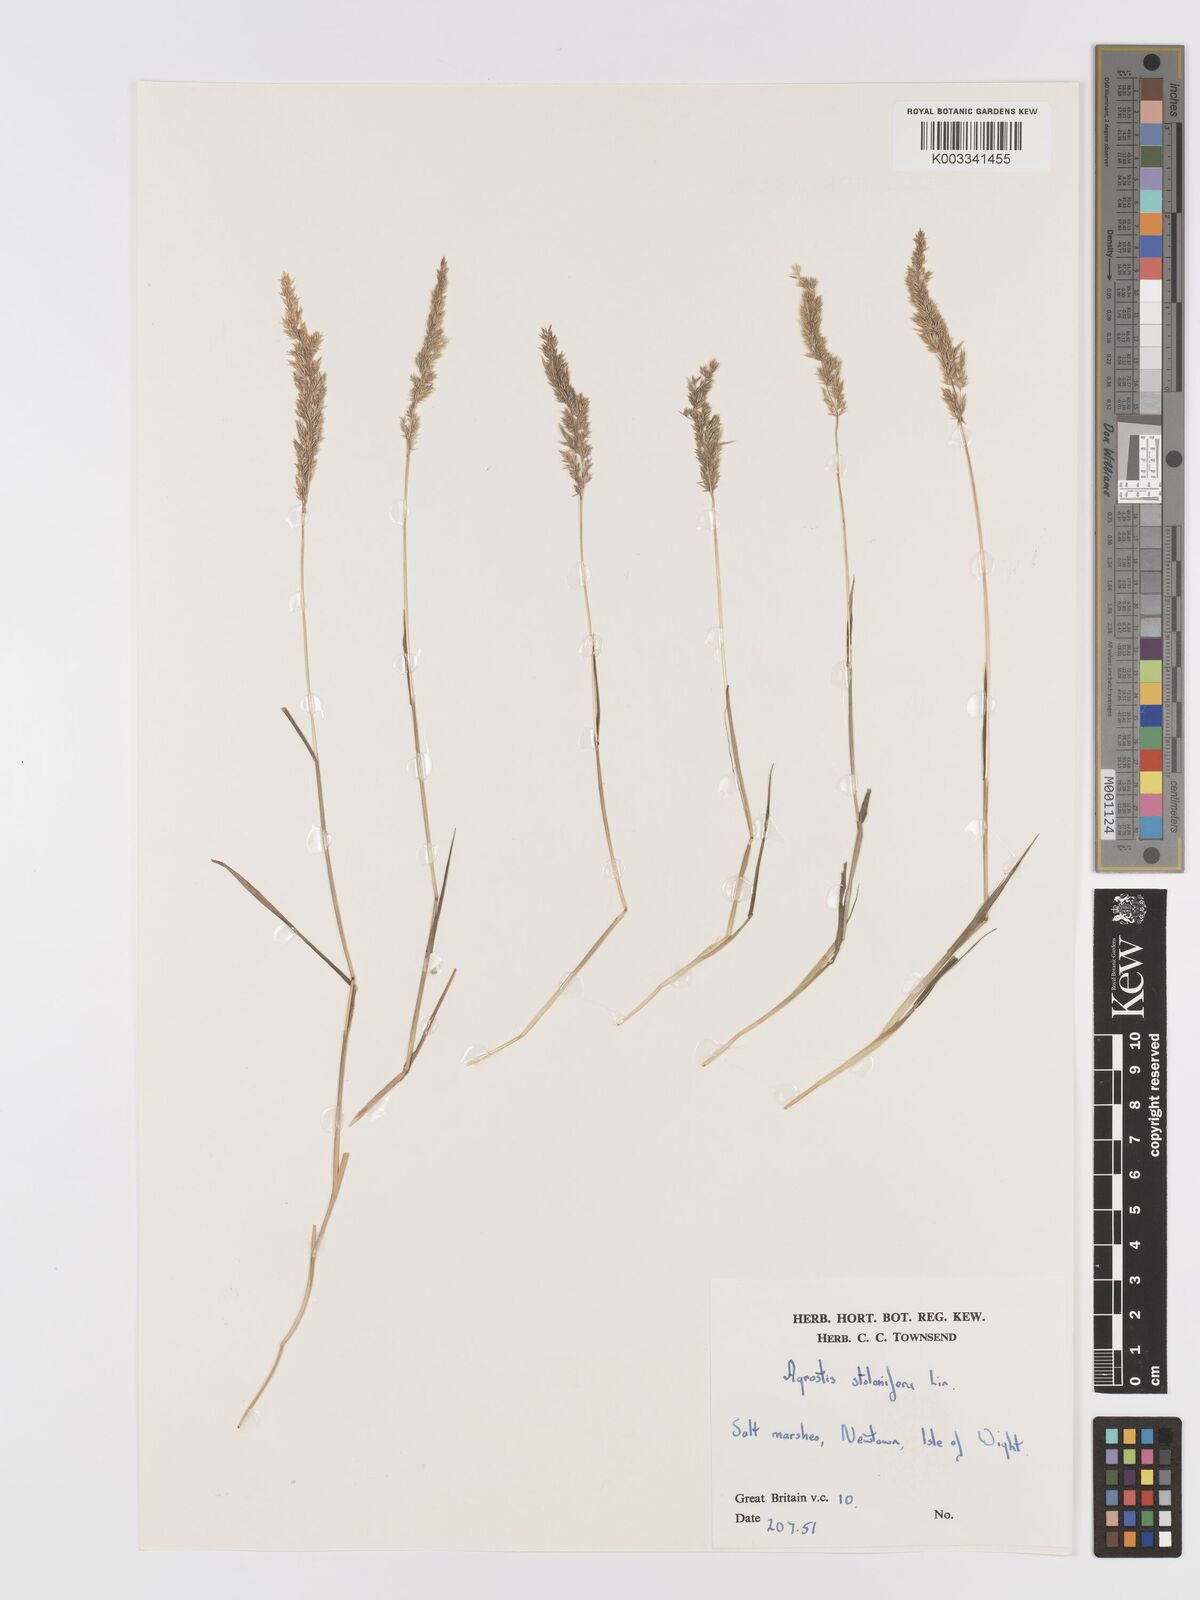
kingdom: Plantae
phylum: Tracheophyta
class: Liliopsida
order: Poales
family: Poaceae
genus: Agrostis
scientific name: Agrostis stolonifera
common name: Creeping bentgrass
